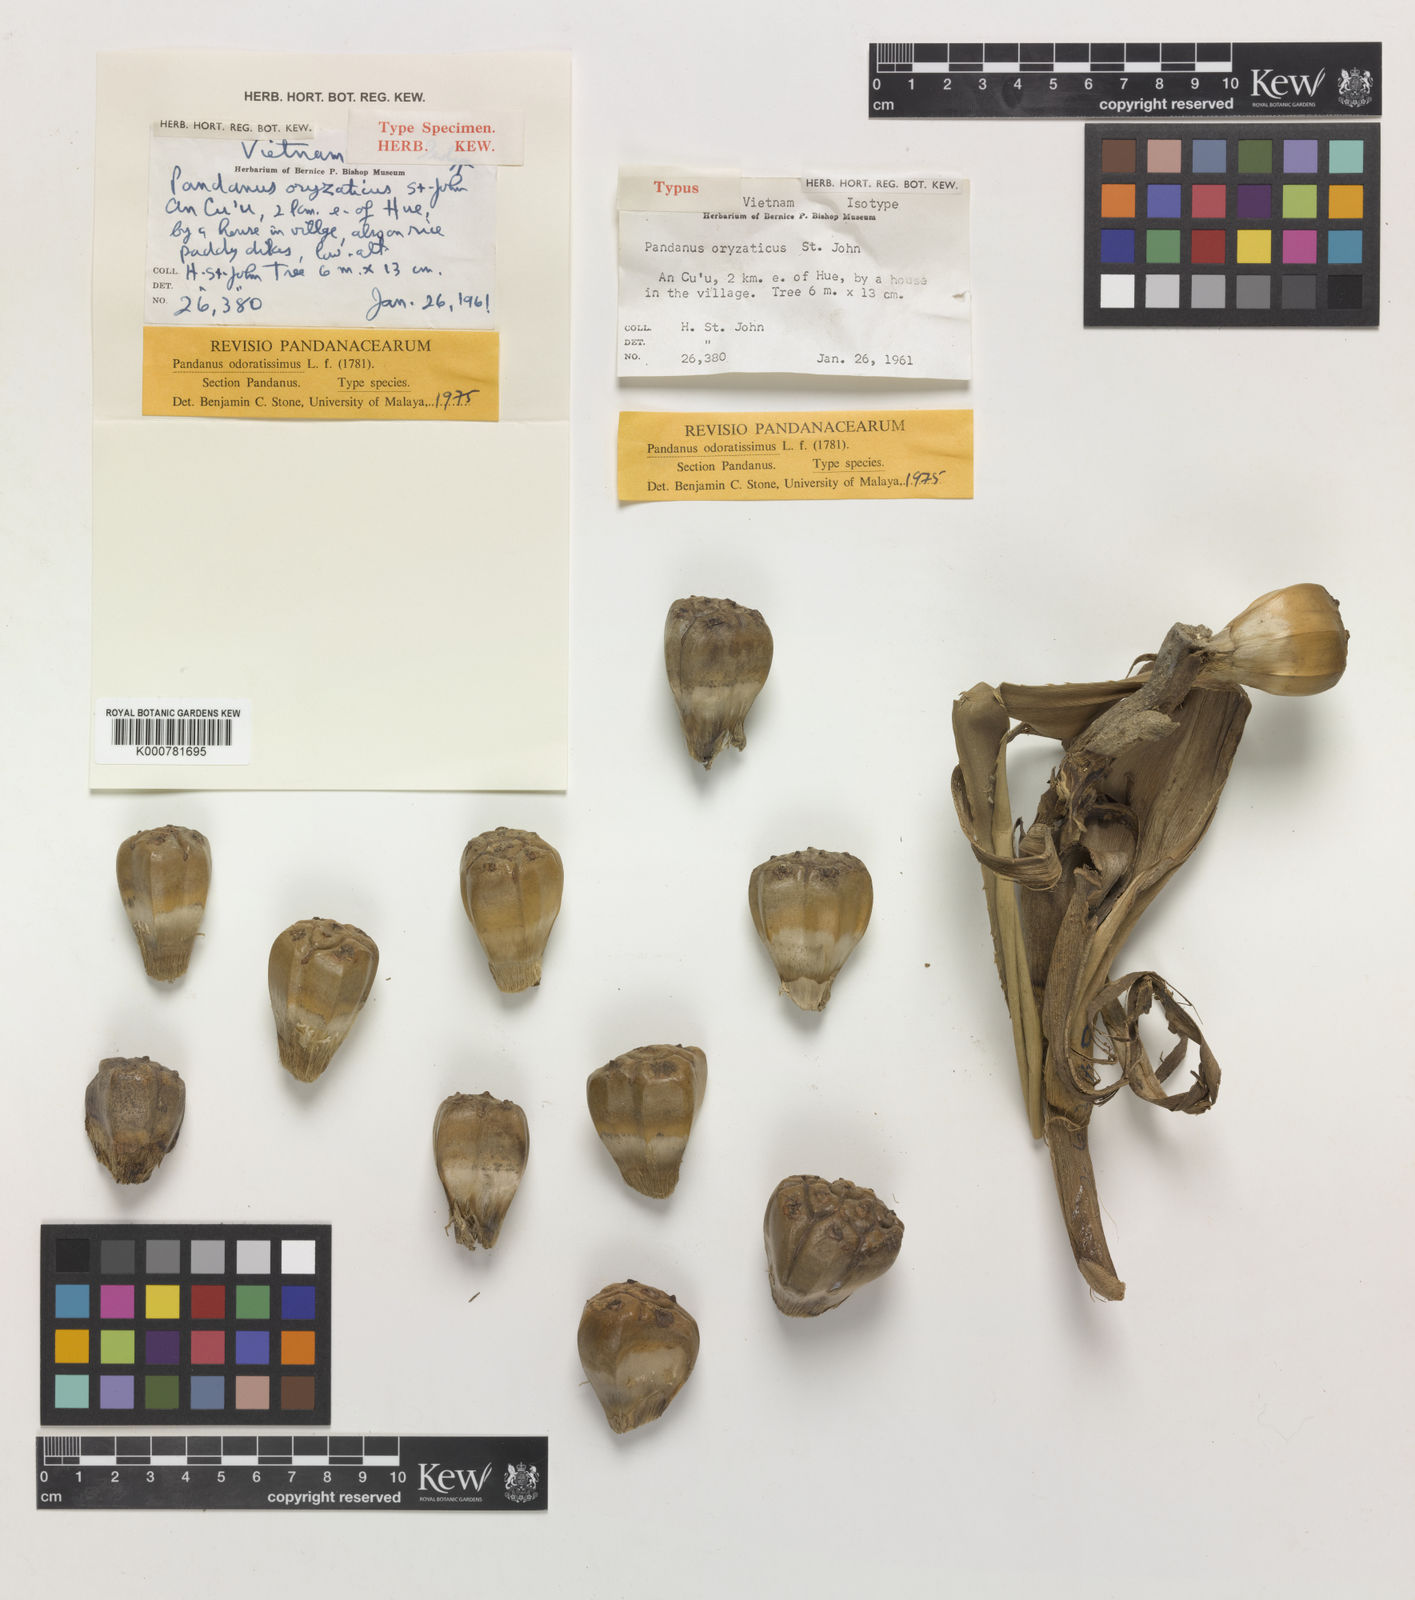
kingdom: Plantae
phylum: Tracheophyta
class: Liliopsida
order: Pandanales
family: Pandanaceae
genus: Pandanus
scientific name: Pandanus odorifer
